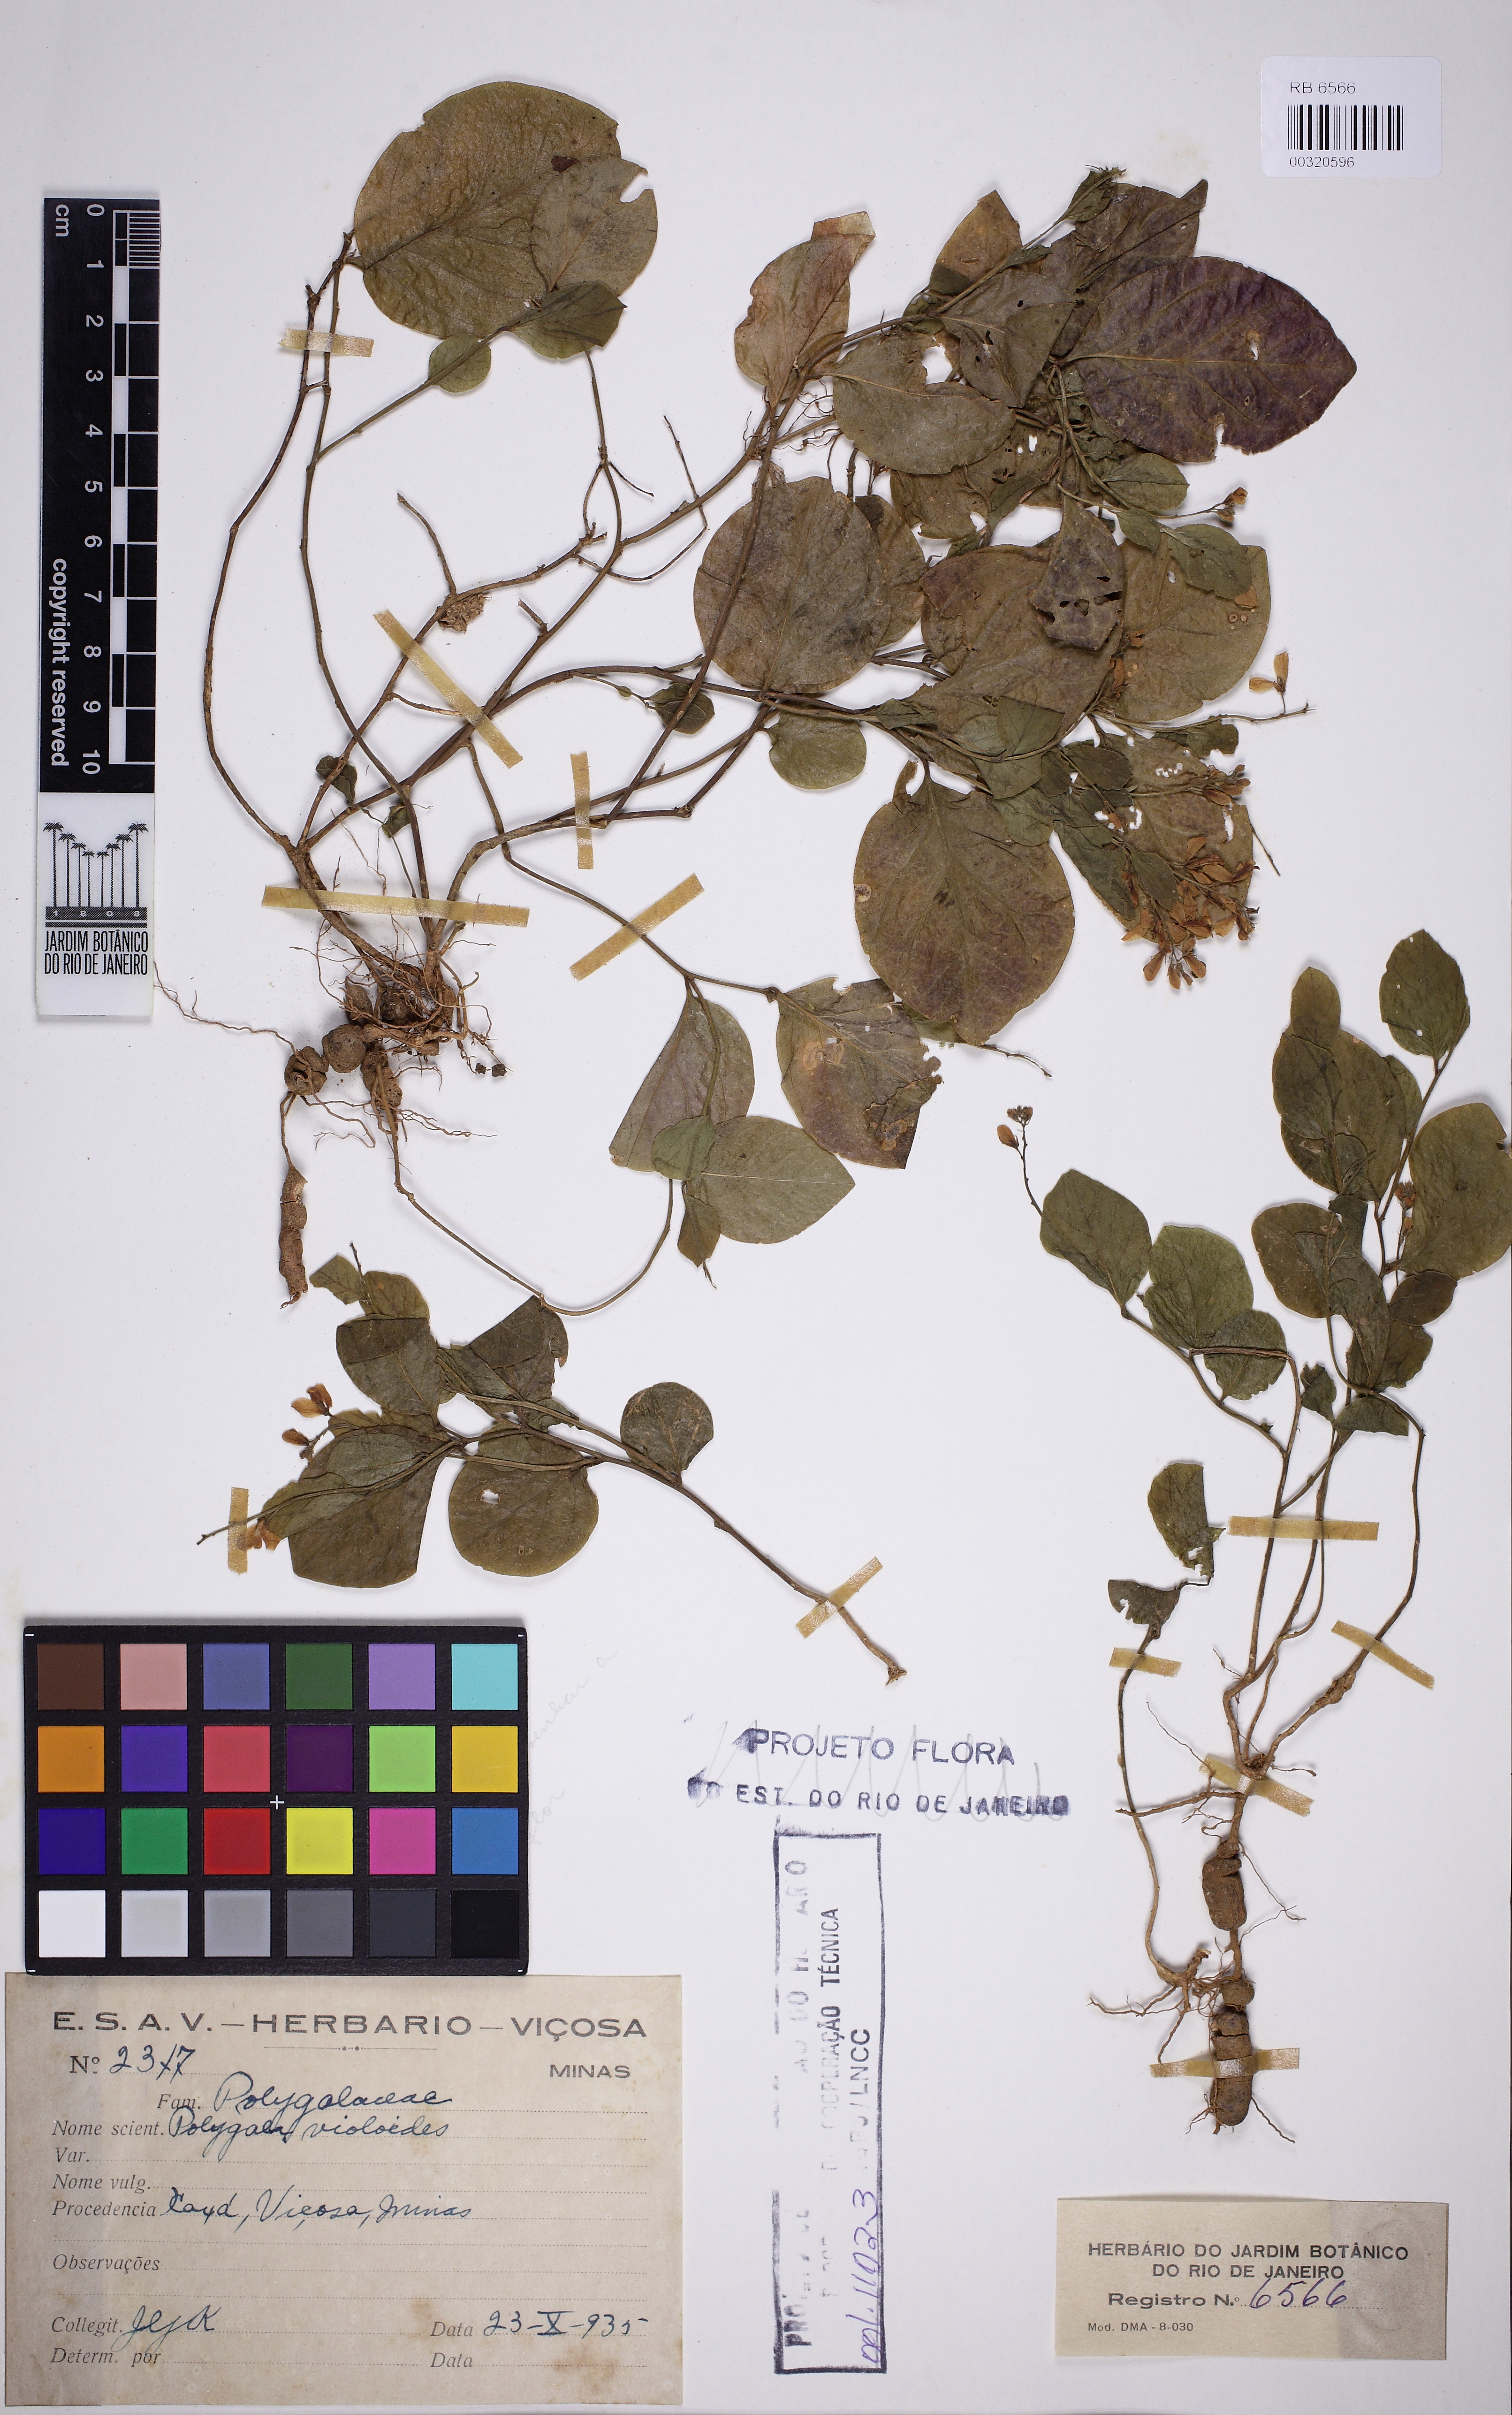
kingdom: Plantae
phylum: Tracheophyta
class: Magnoliopsida
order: Fabales
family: Polygalaceae
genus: Gymnospora
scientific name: Gymnospora violoides
